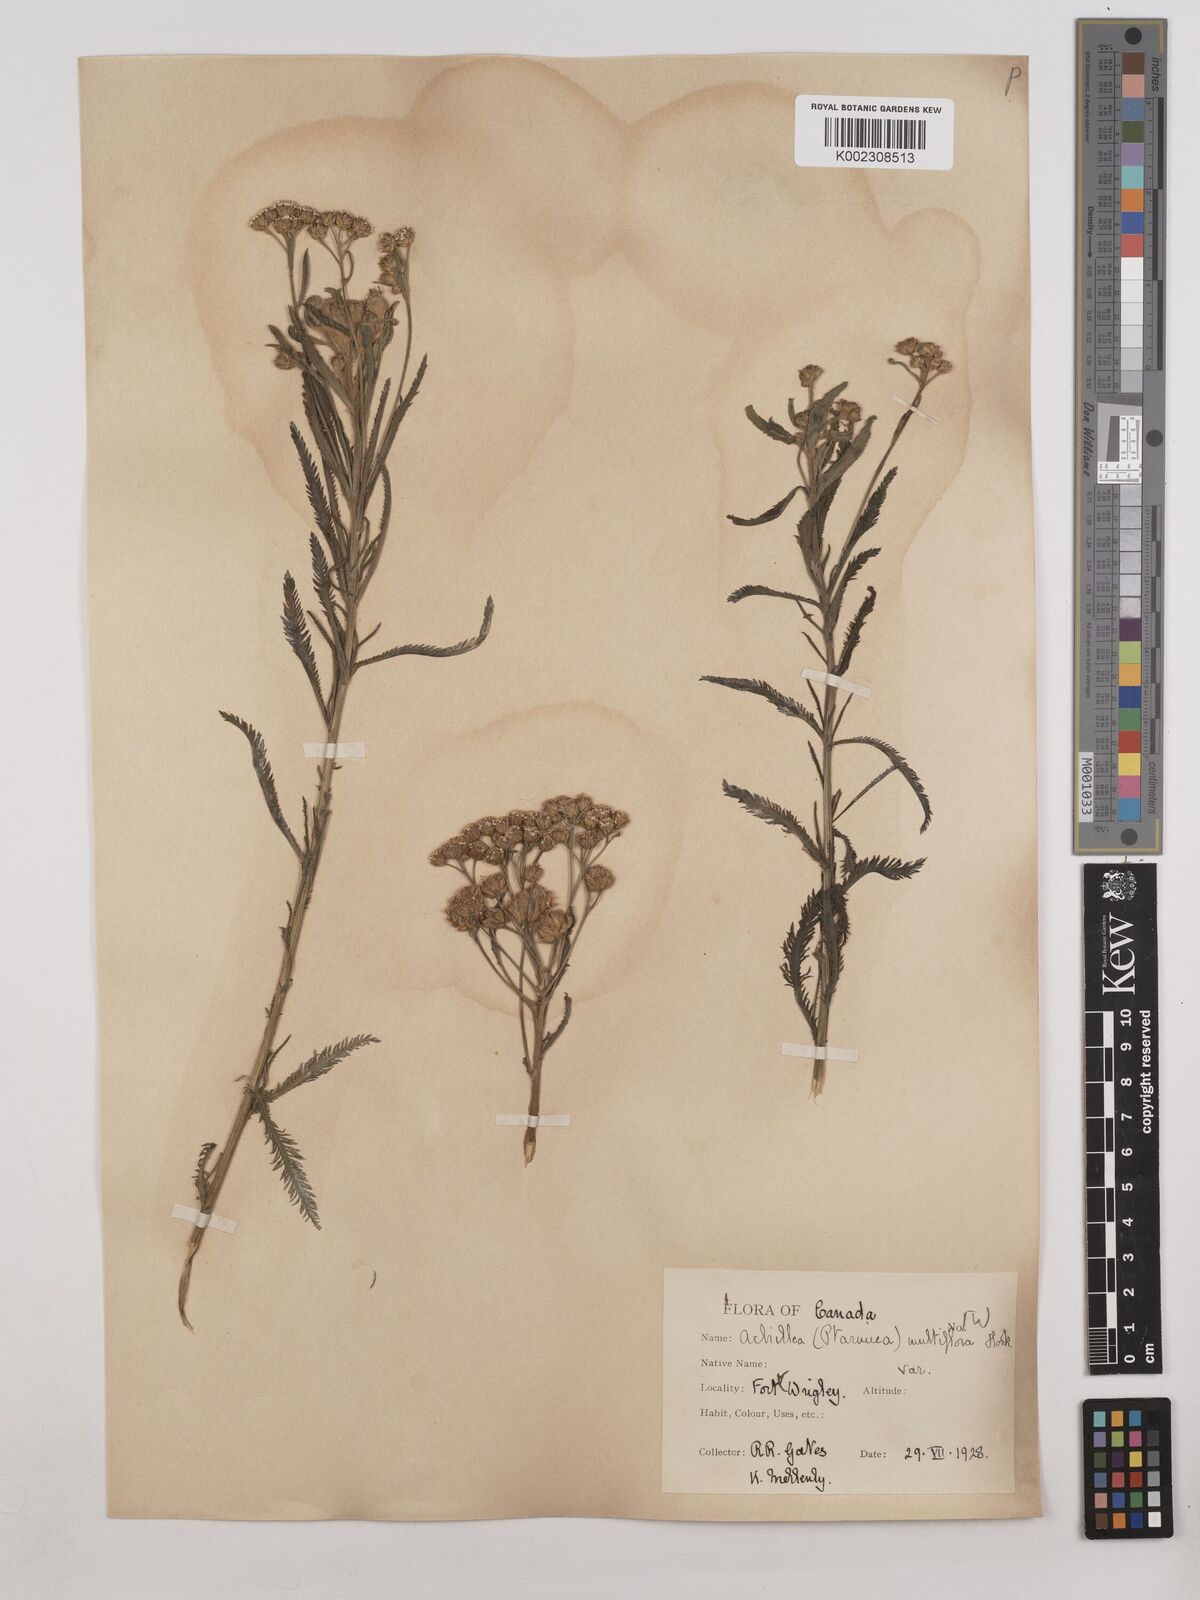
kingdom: Plantae
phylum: Tracheophyta
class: Magnoliopsida
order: Asterales
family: Asteraceae
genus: Achillea
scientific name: Achillea alpina
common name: Siberian yarrow
